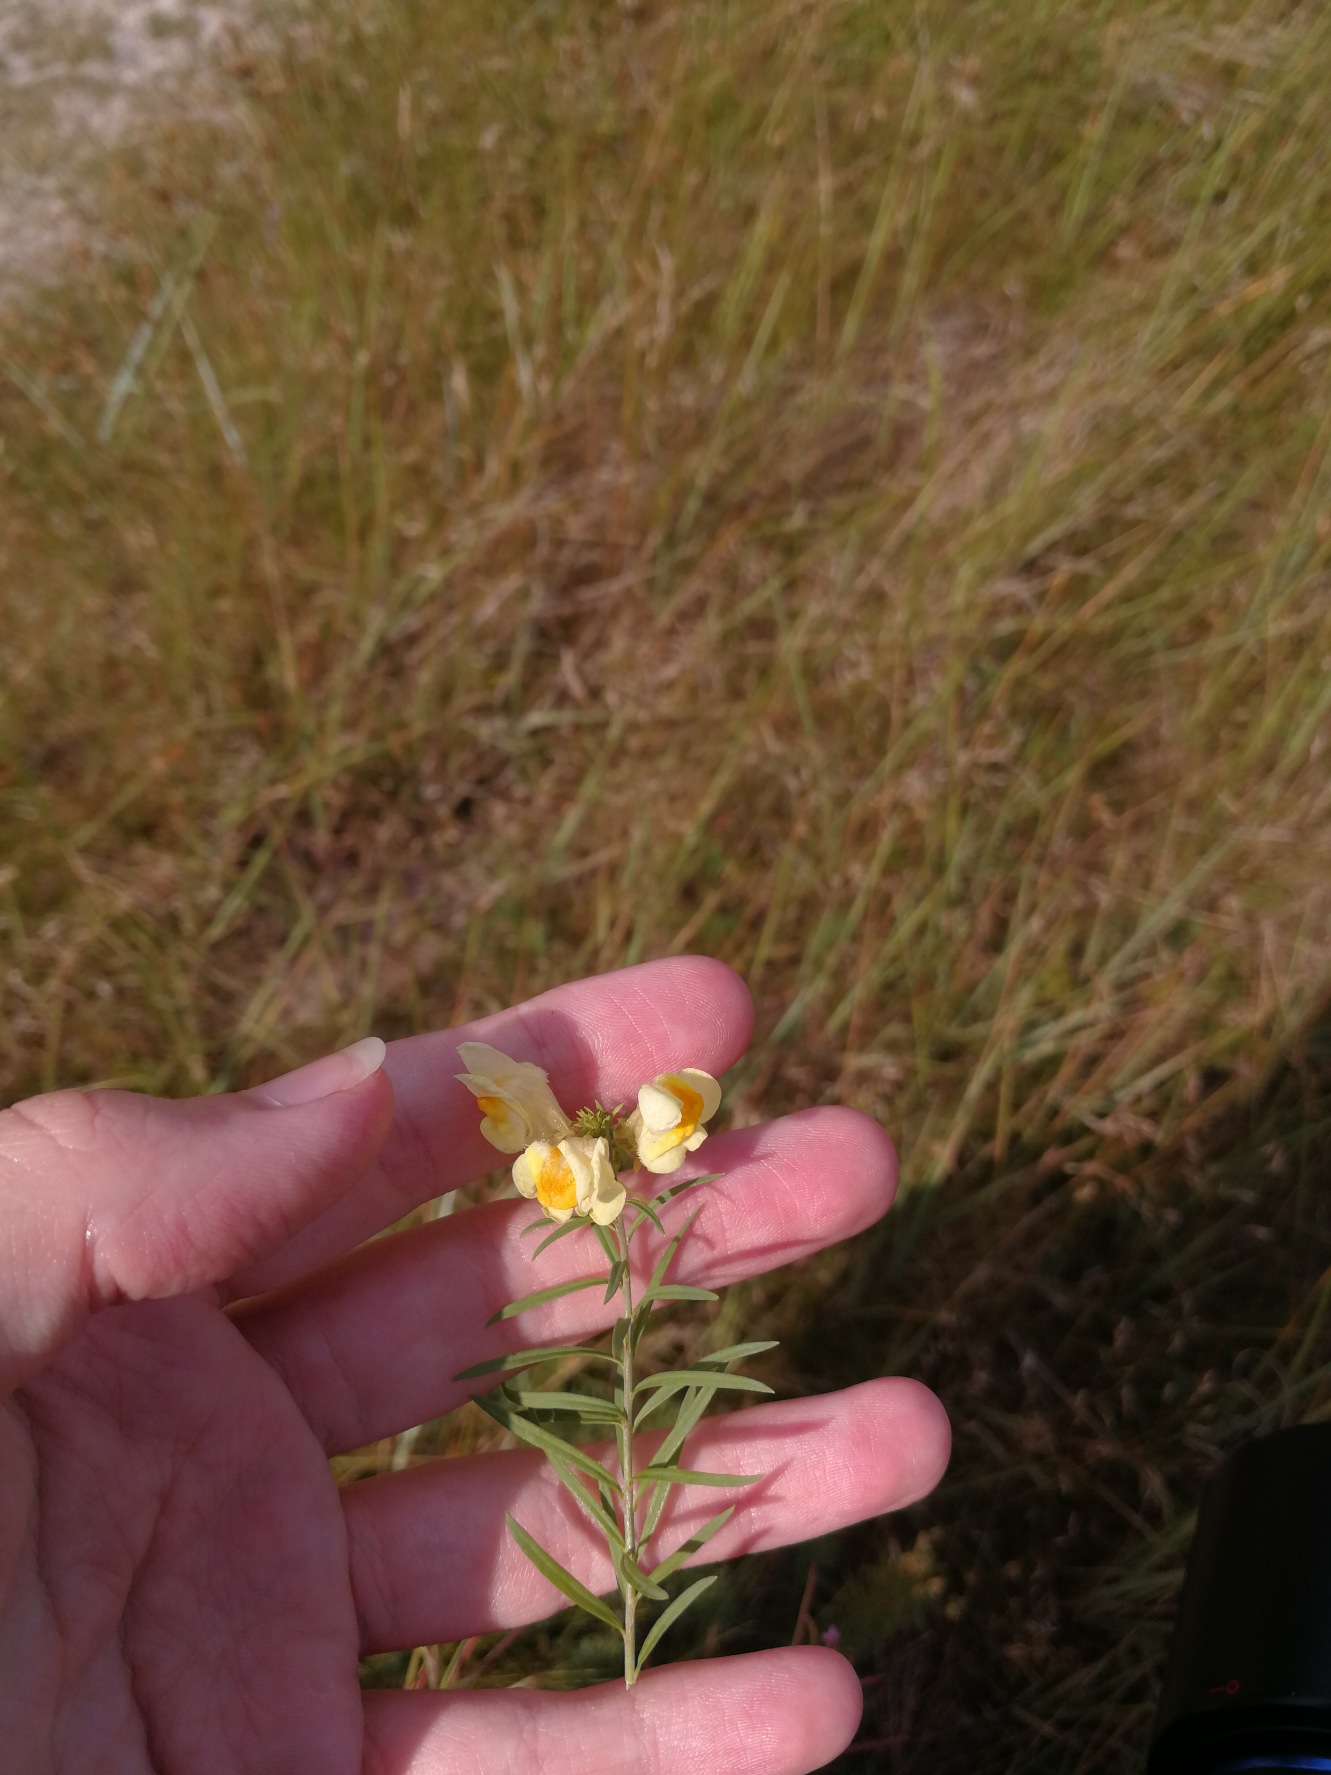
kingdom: Plantae
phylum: Tracheophyta
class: Magnoliopsida
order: Lamiales
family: Plantaginaceae
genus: Linaria
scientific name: Linaria vulgaris
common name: Almindelig torskemund
